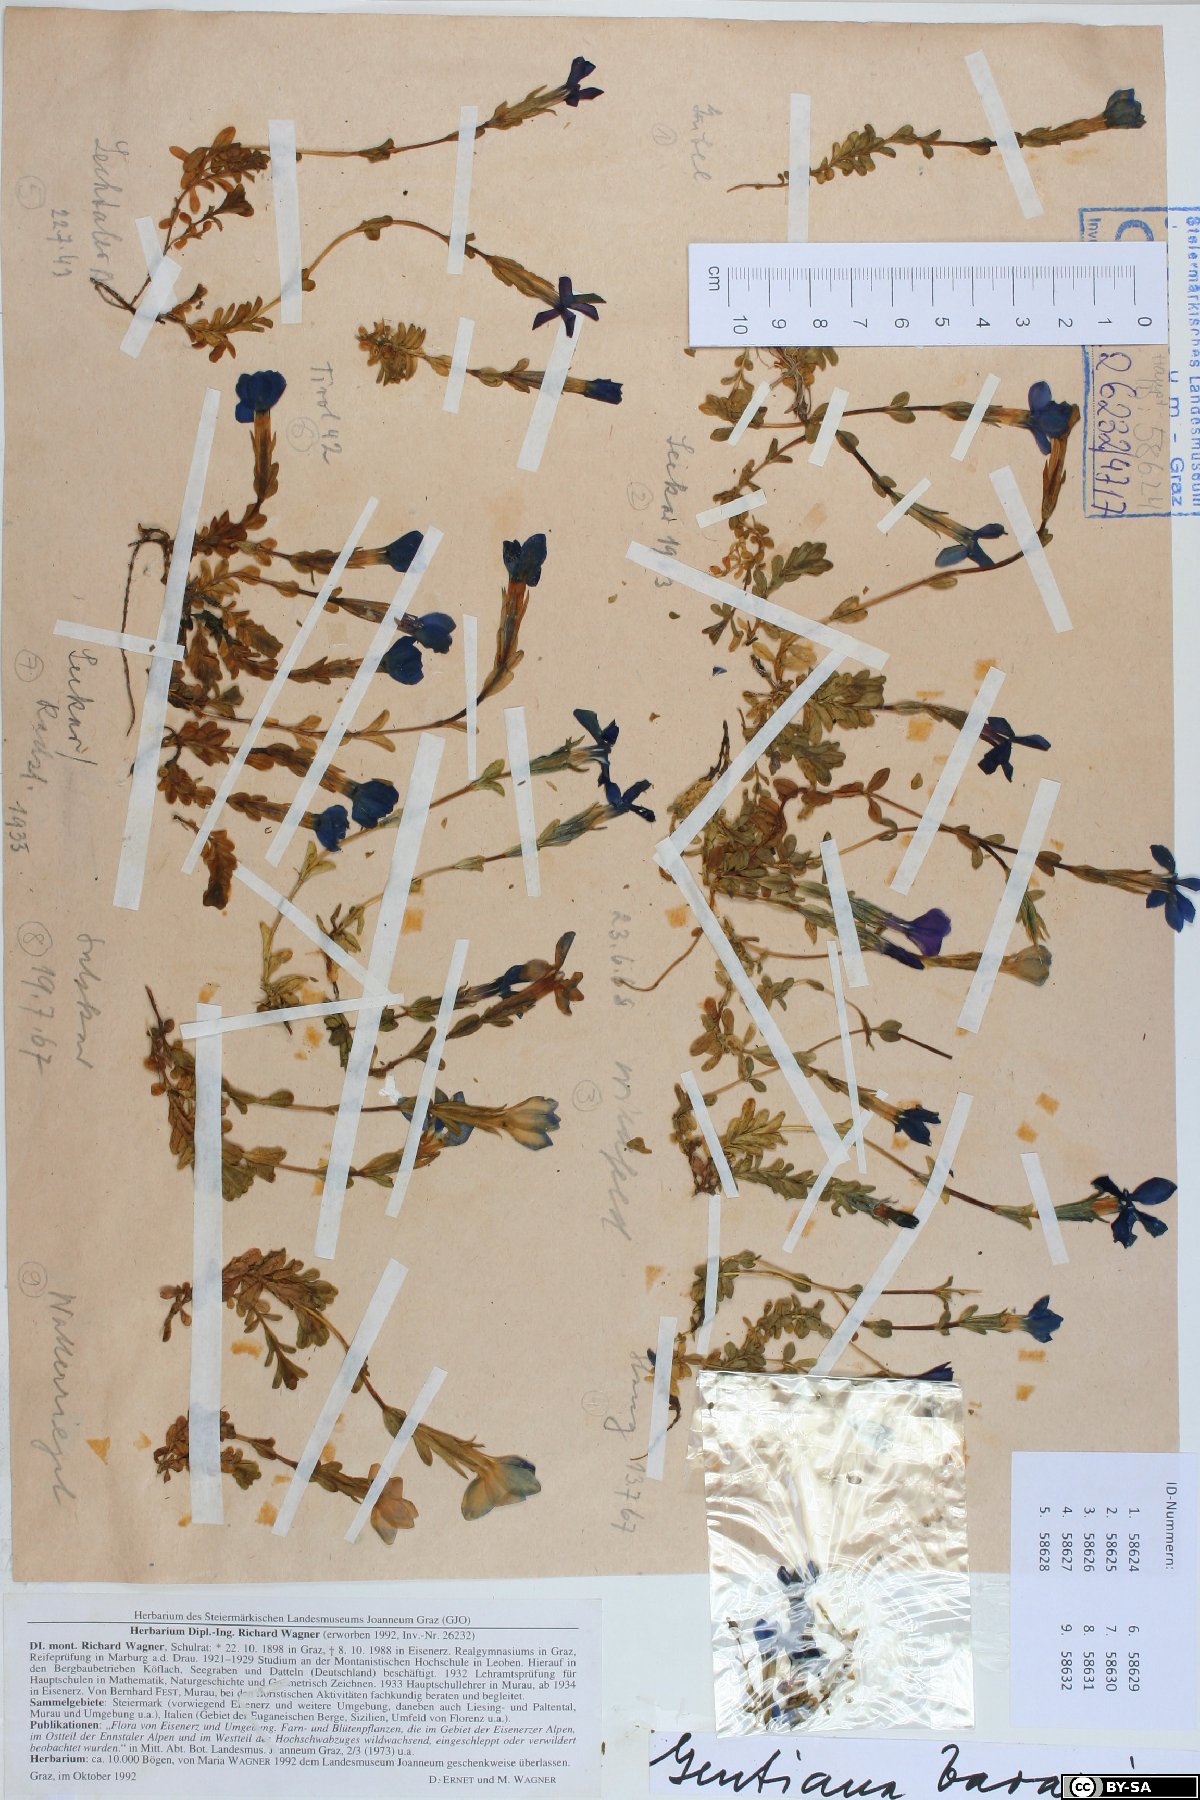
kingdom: Plantae
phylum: Tracheophyta
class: Magnoliopsida
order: Gentianales
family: Gentianaceae
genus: Gentiana
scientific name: Gentiana bavarica
